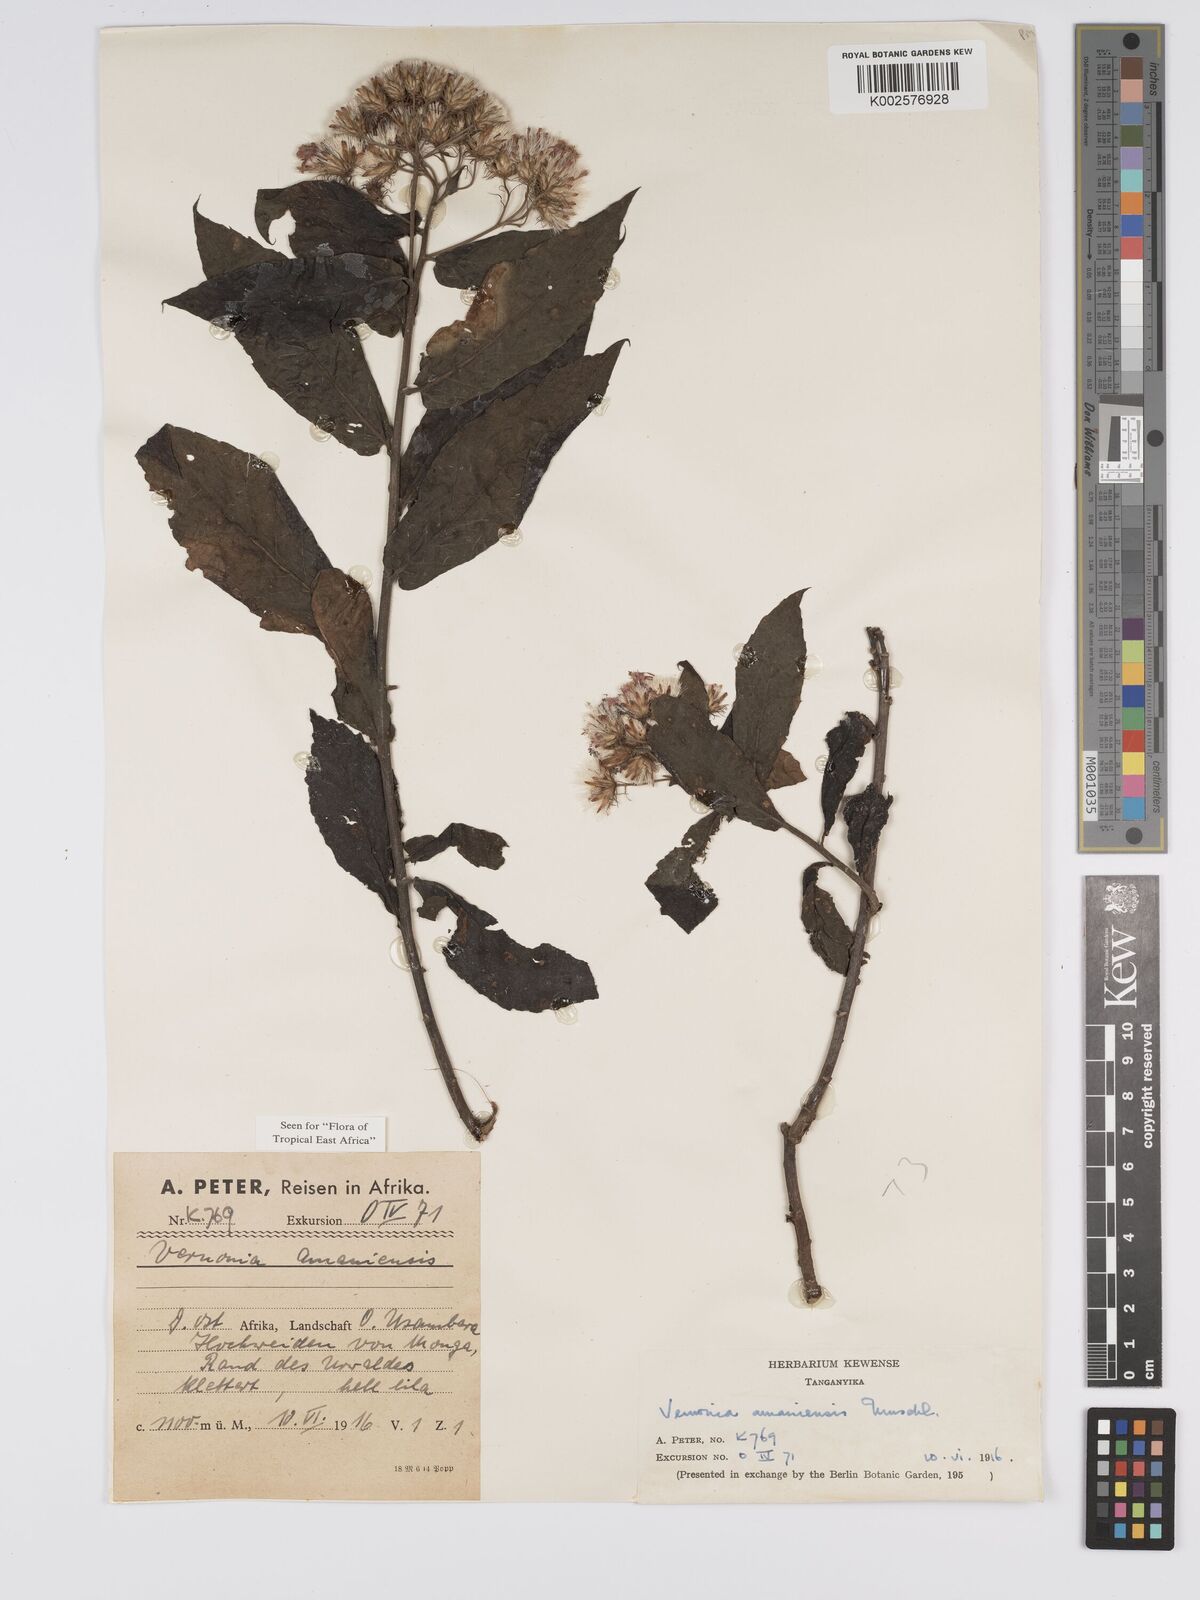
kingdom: Plantae
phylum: Tracheophyta
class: Magnoliopsida
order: Asterales
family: Asteraceae
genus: Jeffreycia
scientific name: Jeffreycia amaniensis
